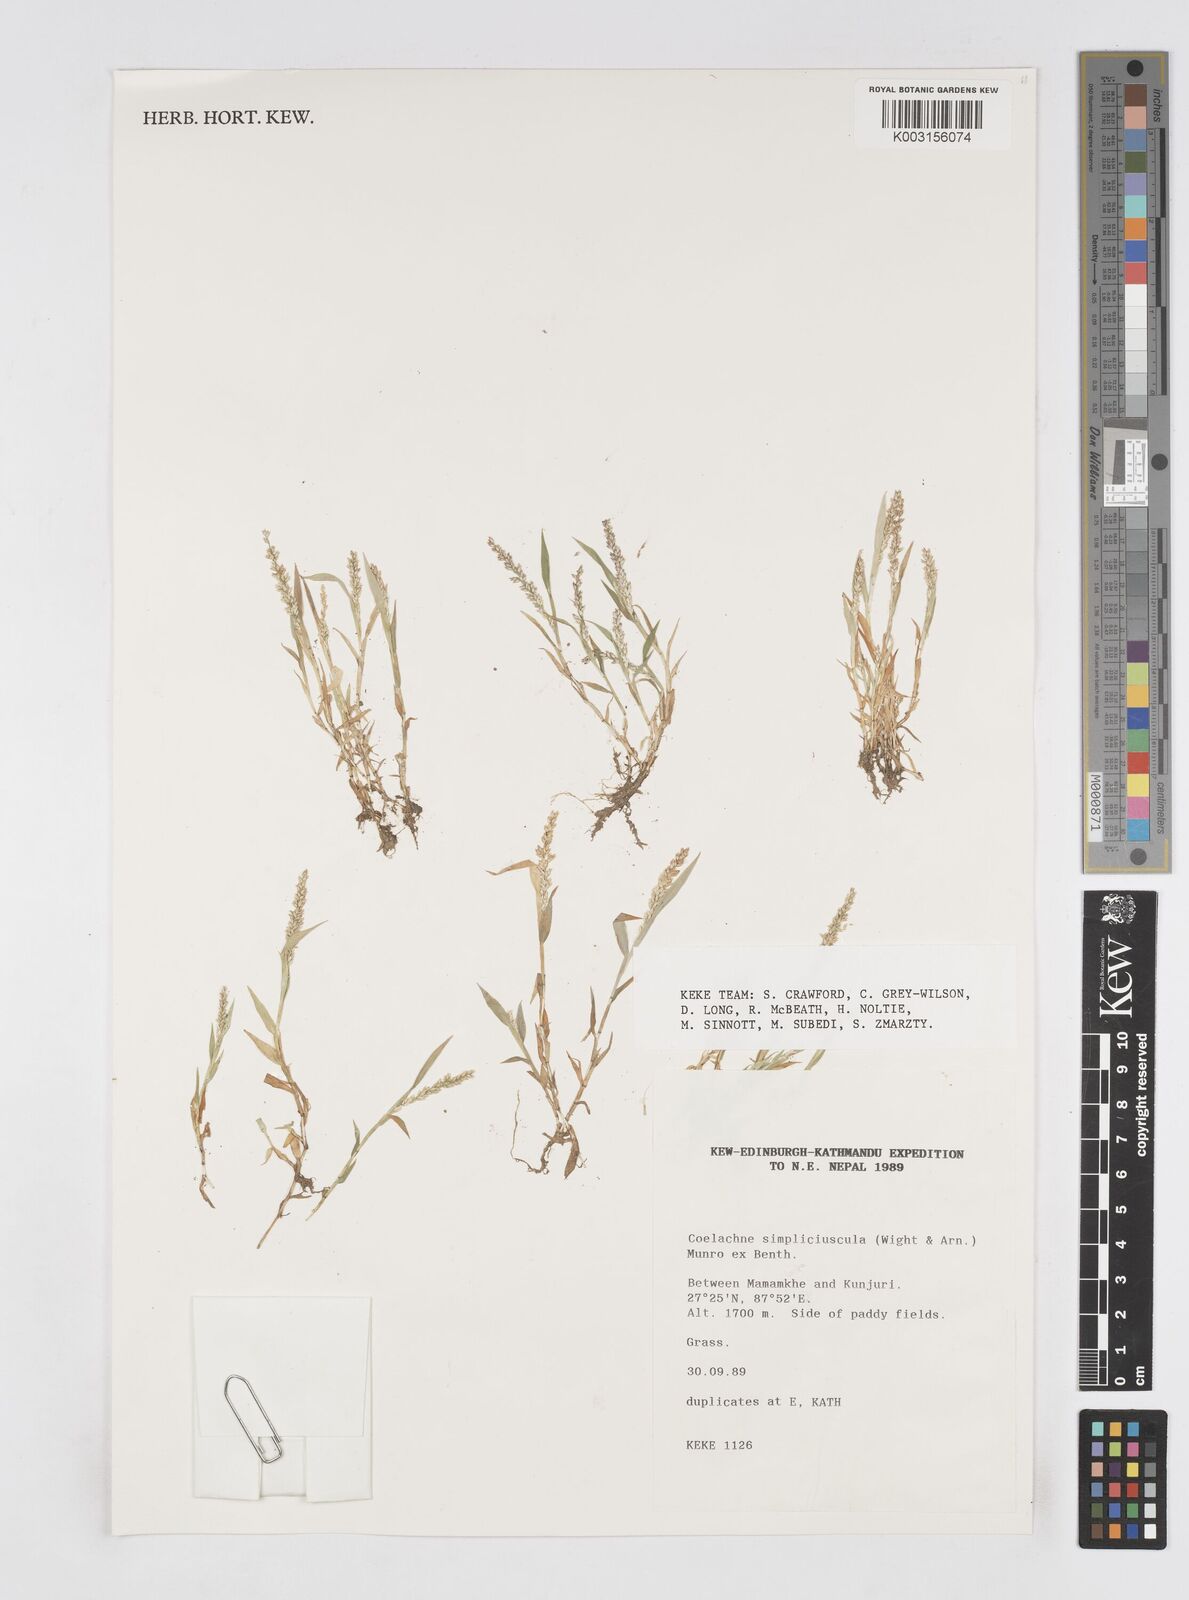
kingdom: Plantae
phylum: Tracheophyta
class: Liliopsida
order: Poales
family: Poaceae
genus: Coelachne
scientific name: Coelachne simpliciuscula
